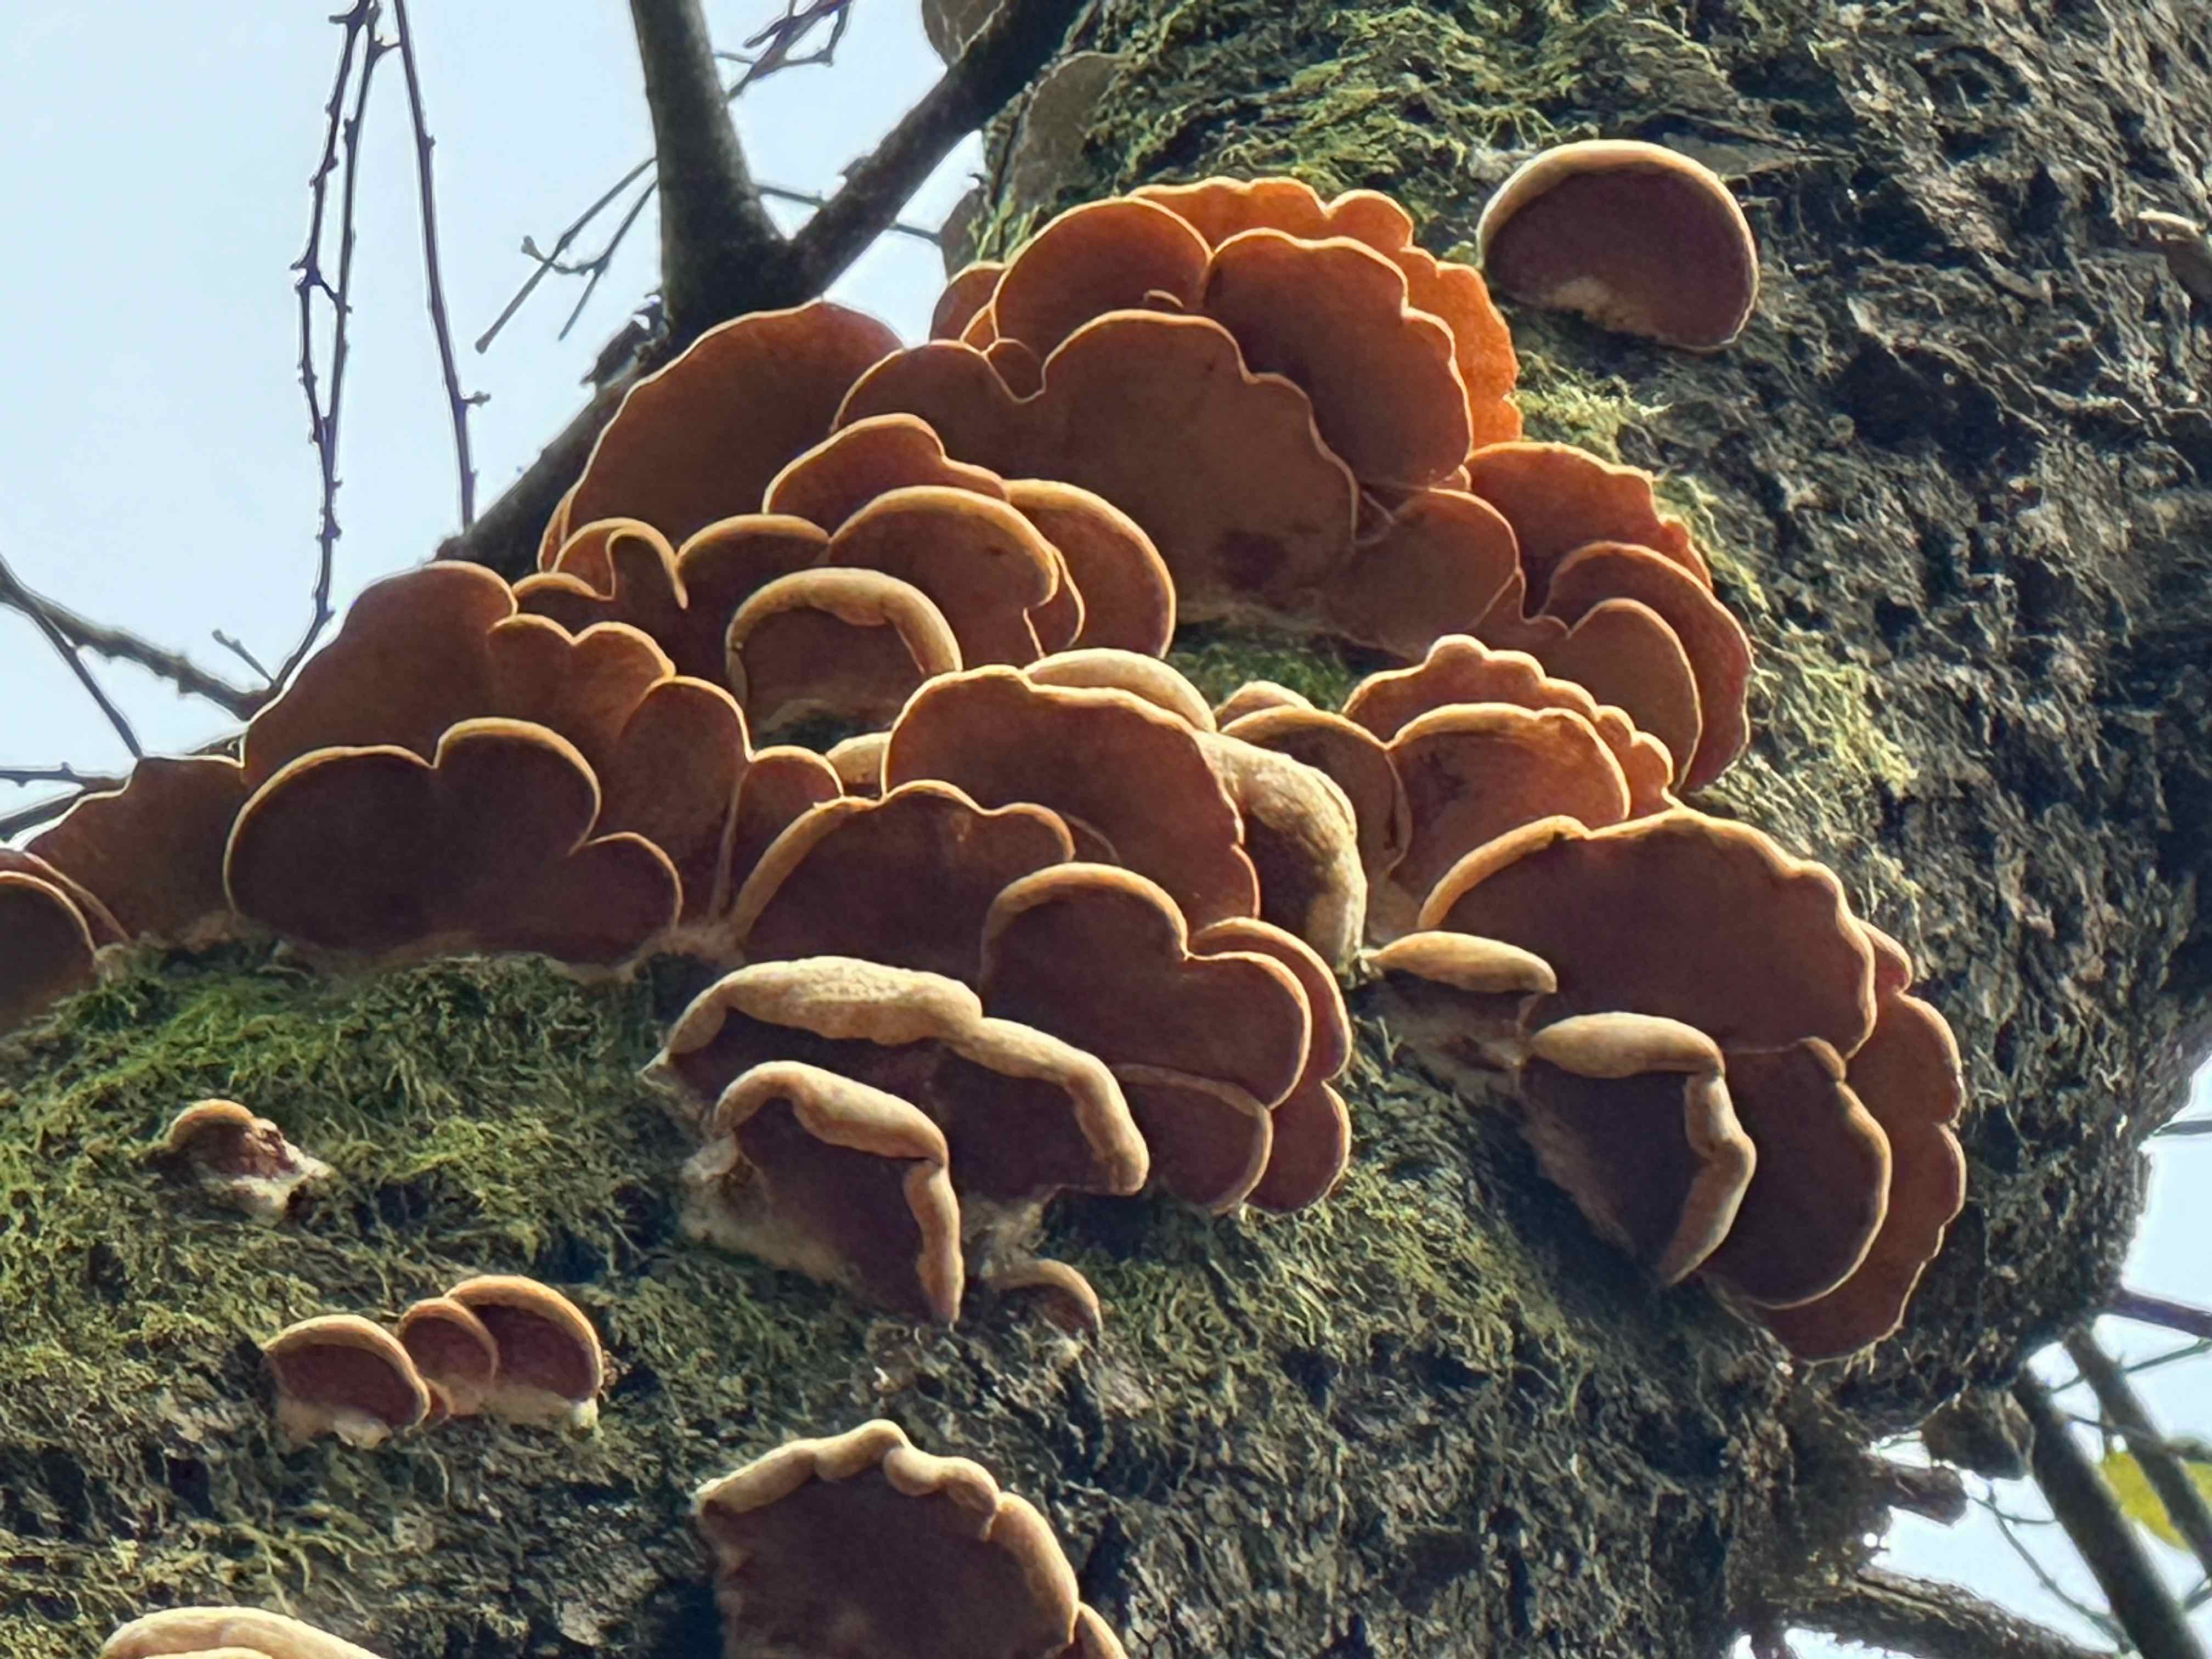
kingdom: Fungi
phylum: Basidiomycota
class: Agaricomycetes
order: Agaricales
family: Phyllotopsidaceae
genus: Phyllotopsis
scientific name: Phyllotopsis nidulans
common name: okkerblad
